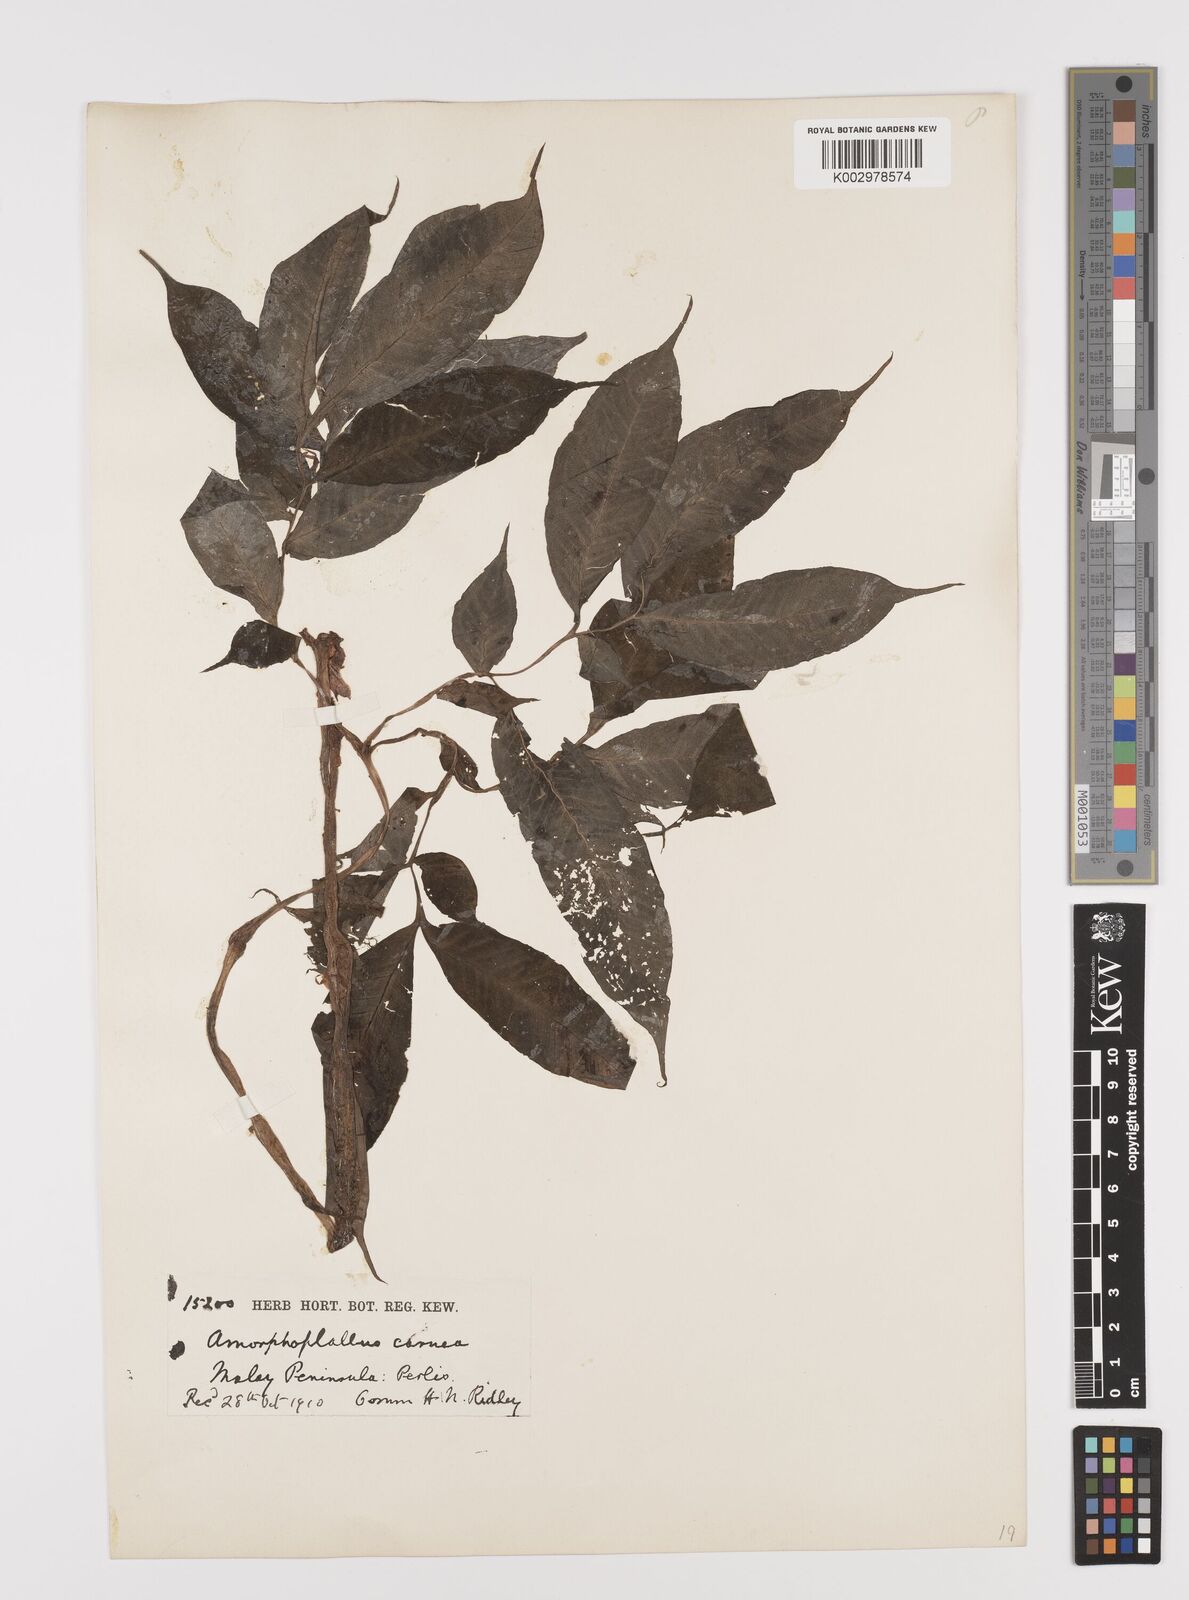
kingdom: Plantae
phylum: Tracheophyta
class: Liliopsida
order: Alismatales
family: Araceae
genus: Amorphophallus
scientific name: Amorphophallus carneus
